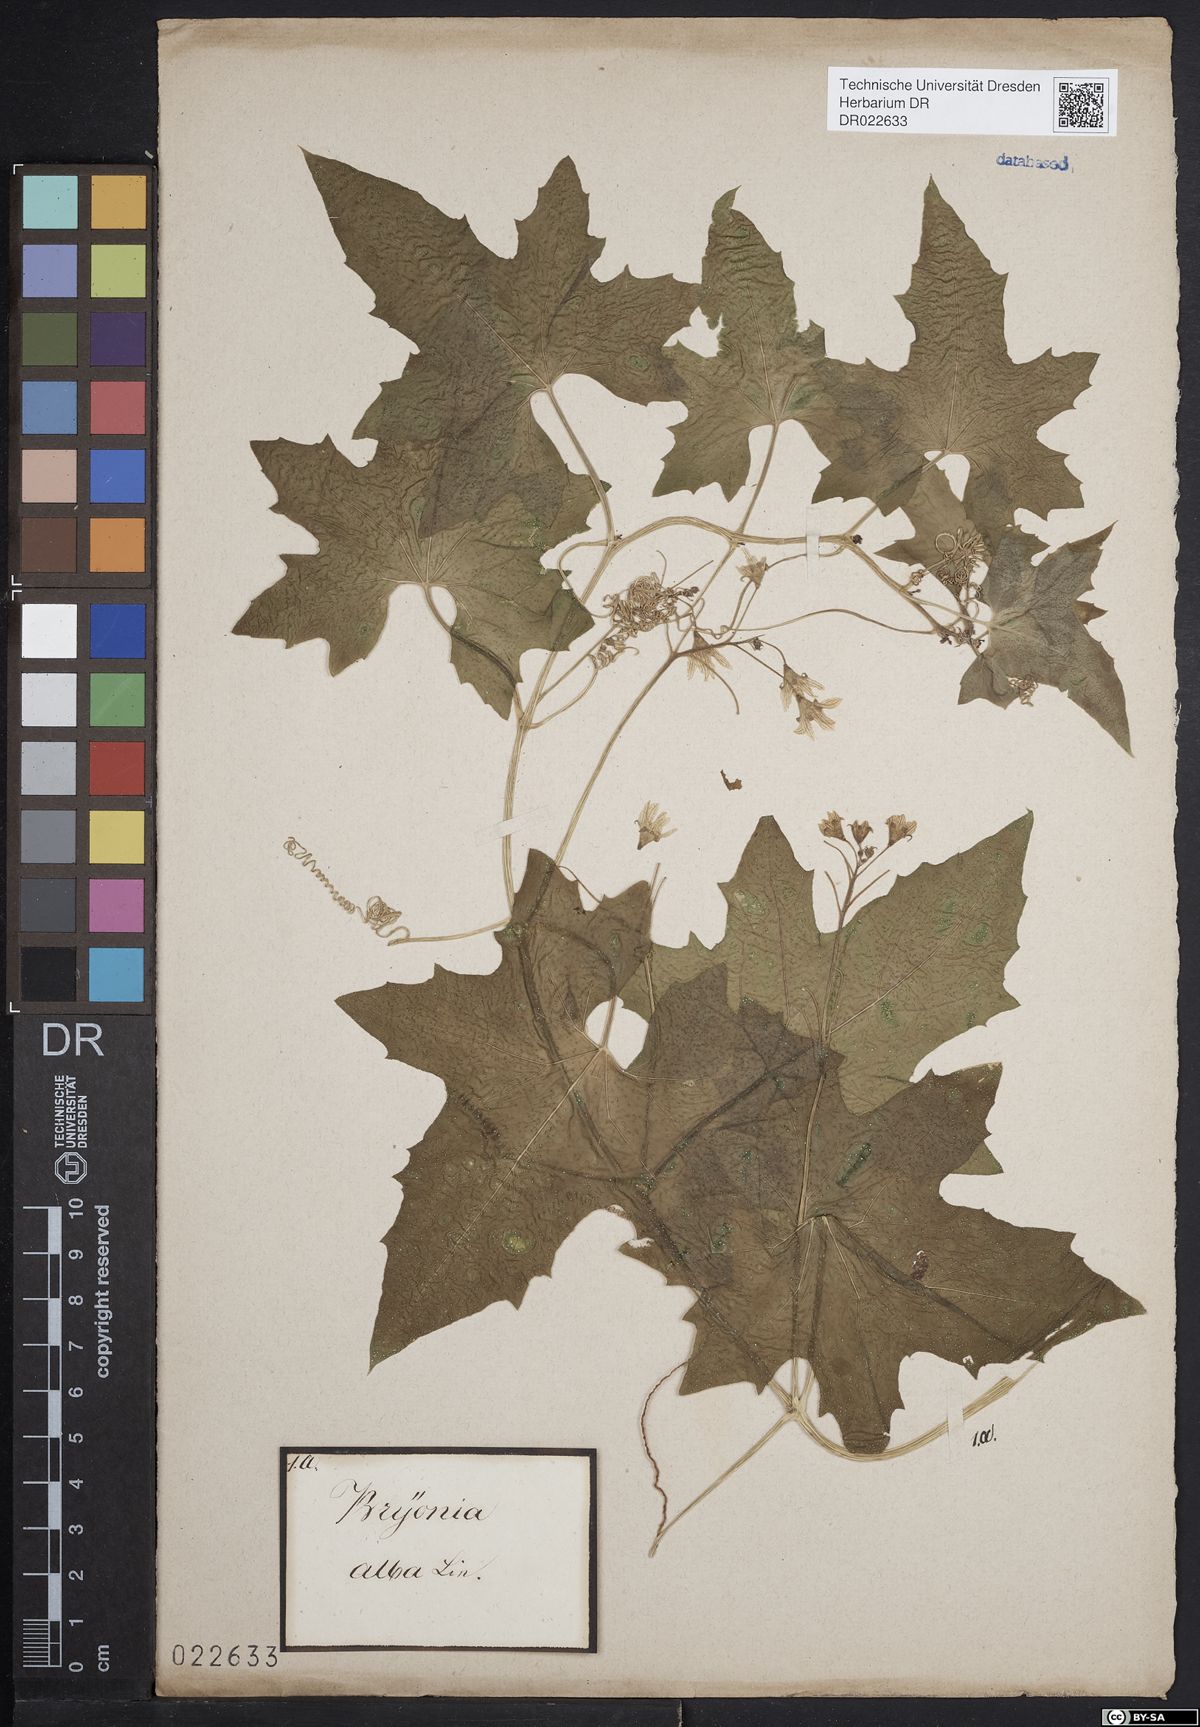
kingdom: Plantae
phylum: Tracheophyta
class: Magnoliopsida
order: Cucurbitales
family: Cucurbitaceae
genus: Bryonia
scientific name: Bryonia alba
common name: White bryony
